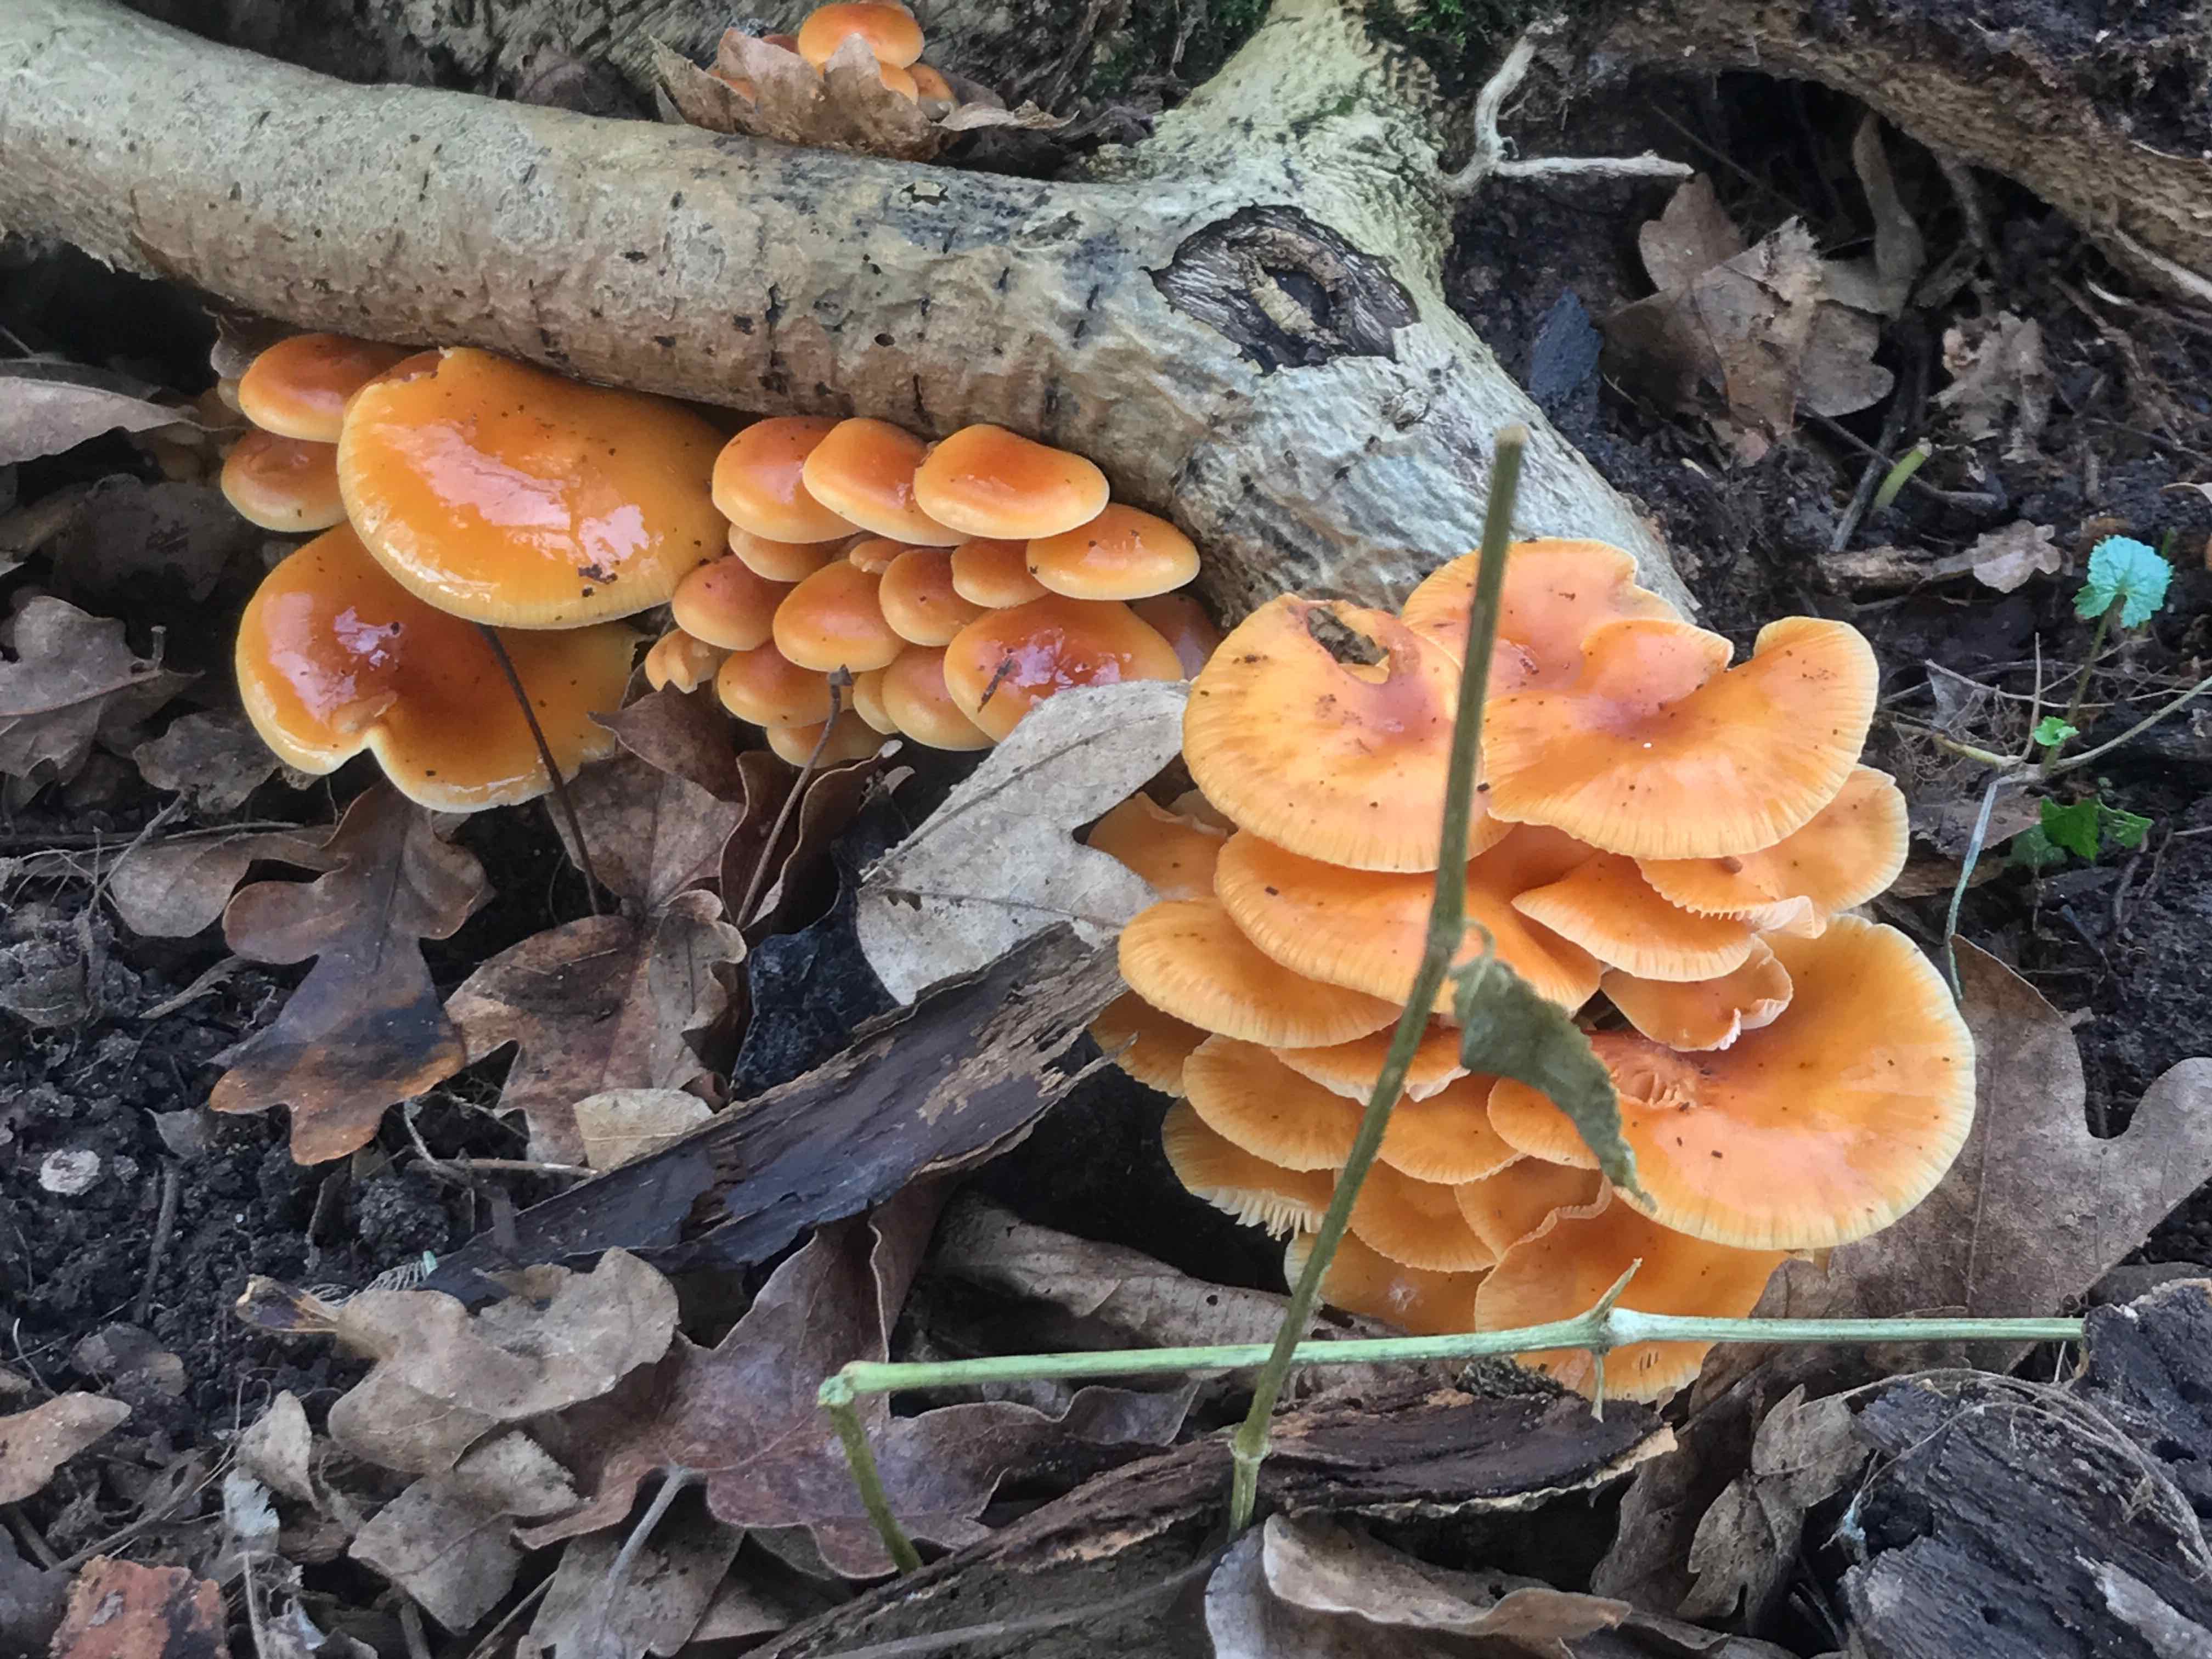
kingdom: Fungi
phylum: Basidiomycota
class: Agaricomycetes
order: Agaricales
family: Physalacriaceae
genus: Flammulina
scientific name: Flammulina velutipes
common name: gul fløjlsfod
